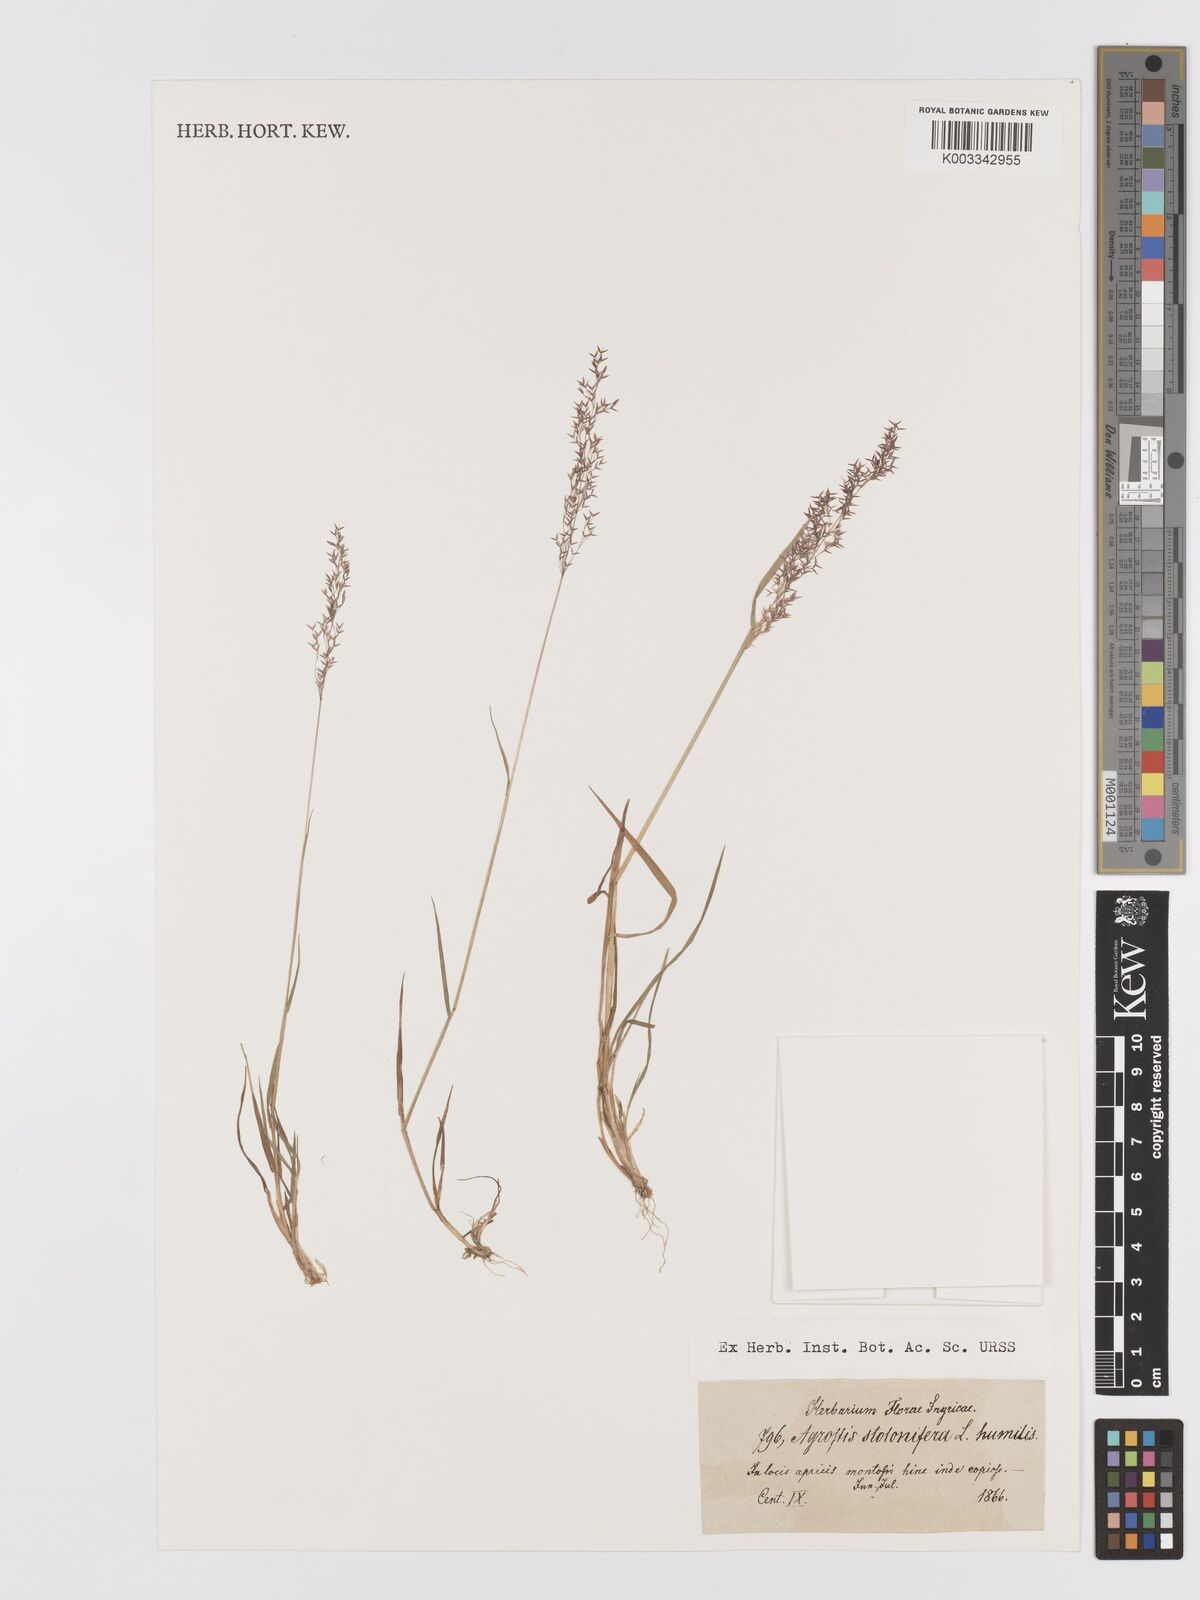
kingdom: Plantae
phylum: Tracheophyta
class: Liliopsida
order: Poales
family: Poaceae
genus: Agrostis
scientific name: Agrostis stolonifera
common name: Creeping bentgrass
